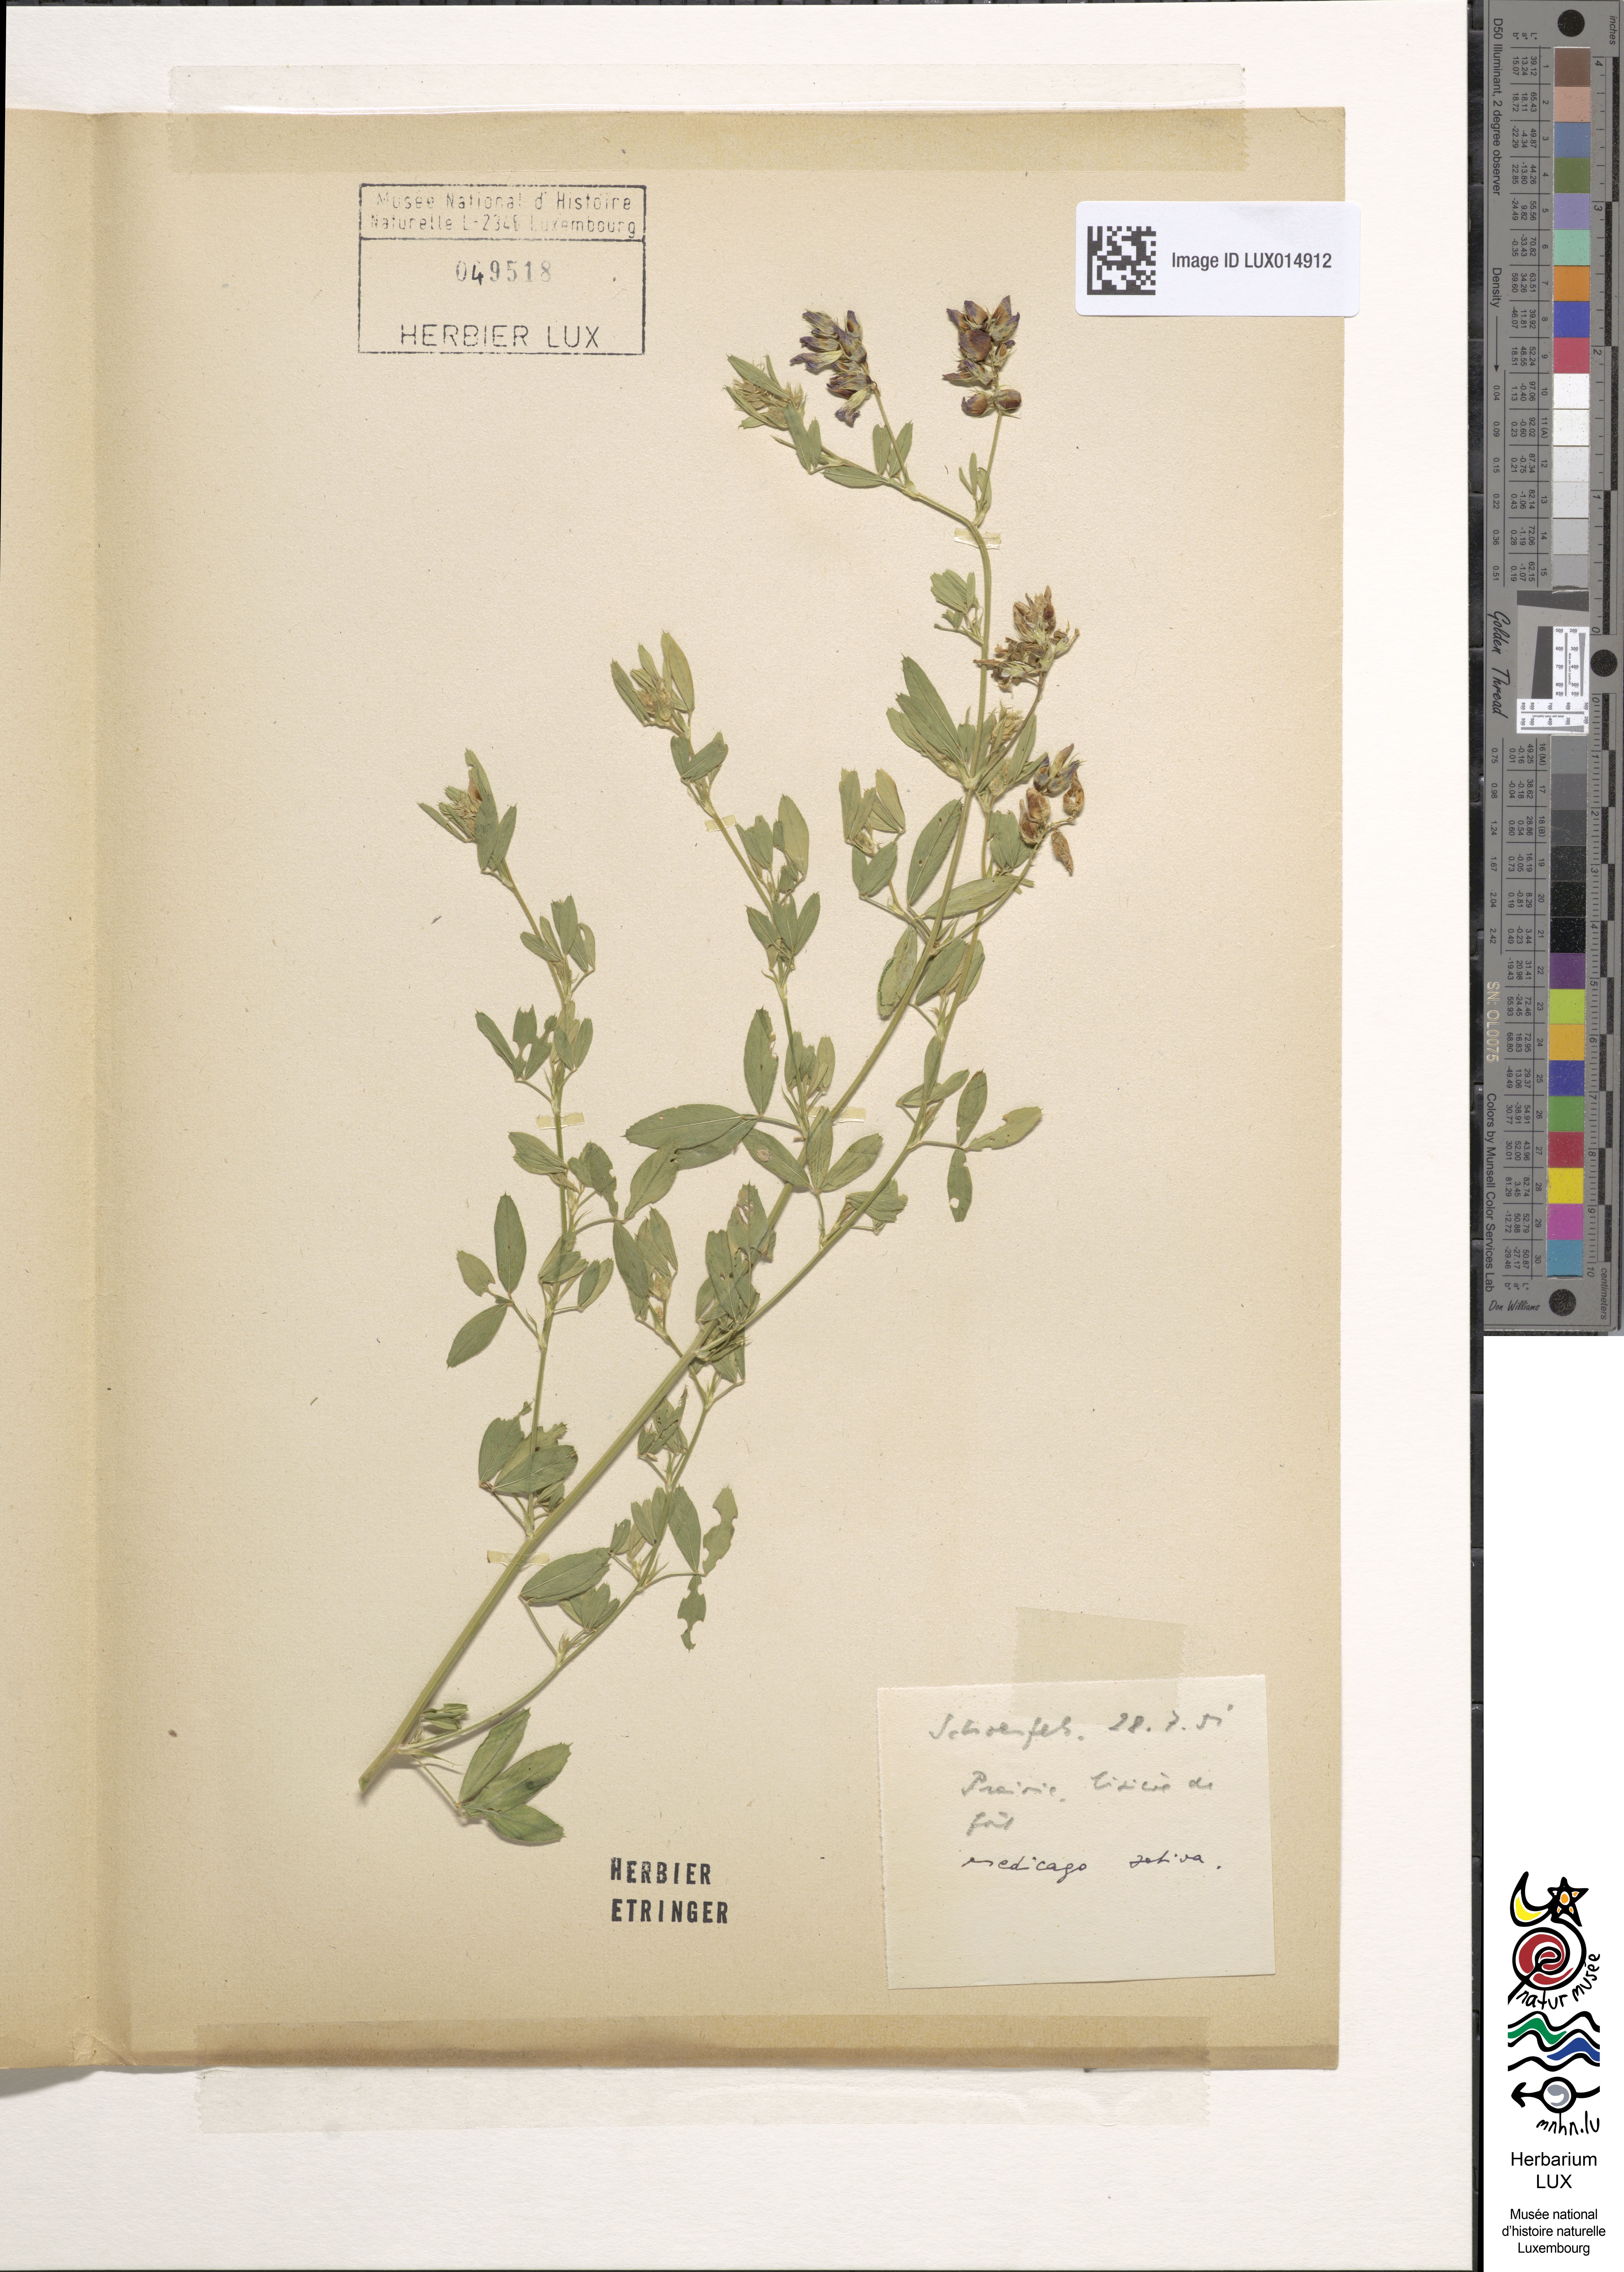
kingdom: Plantae
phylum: Tracheophyta
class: Magnoliopsida
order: Fabales
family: Fabaceae
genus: Medicago
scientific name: Medicago sativa
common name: Alfalfa
